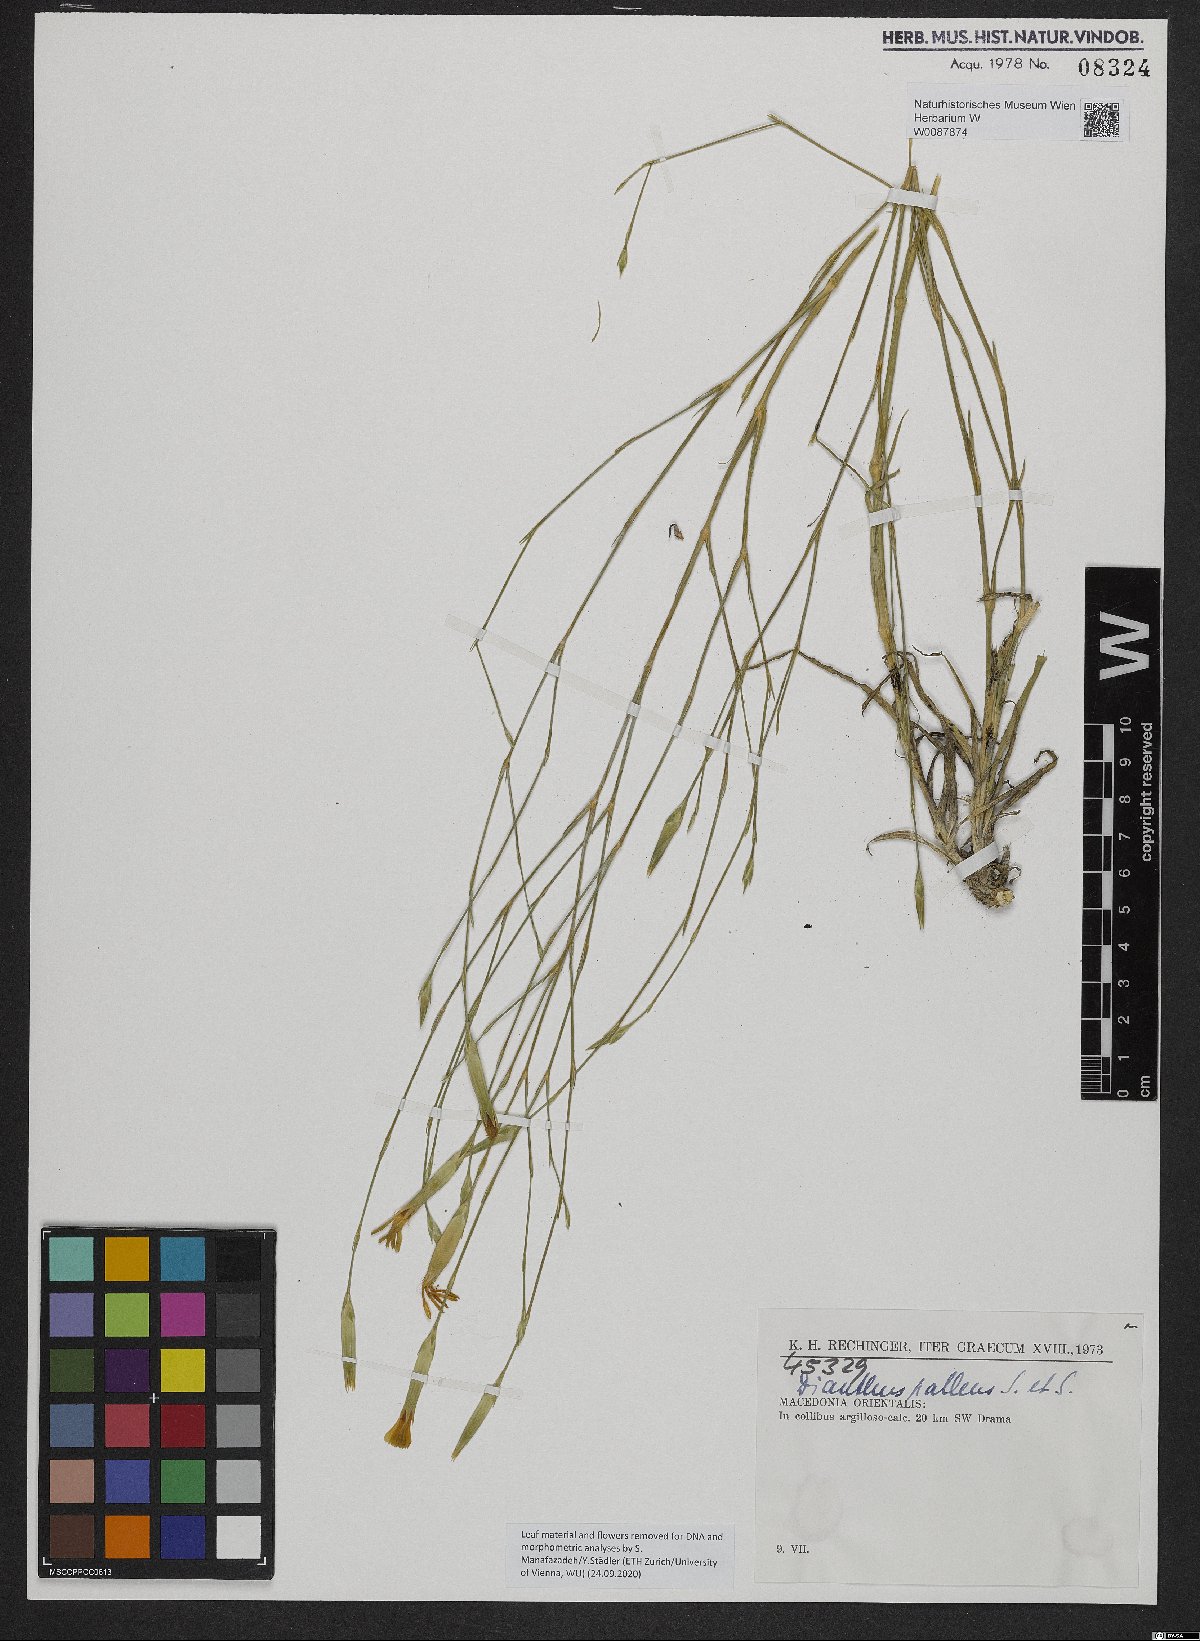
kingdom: Plantae
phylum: Tracheophyta
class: Magnoliopsida
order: Caryophyllales
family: Caryophyllaceae
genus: Dianthus
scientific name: Dianthus monadelphus
